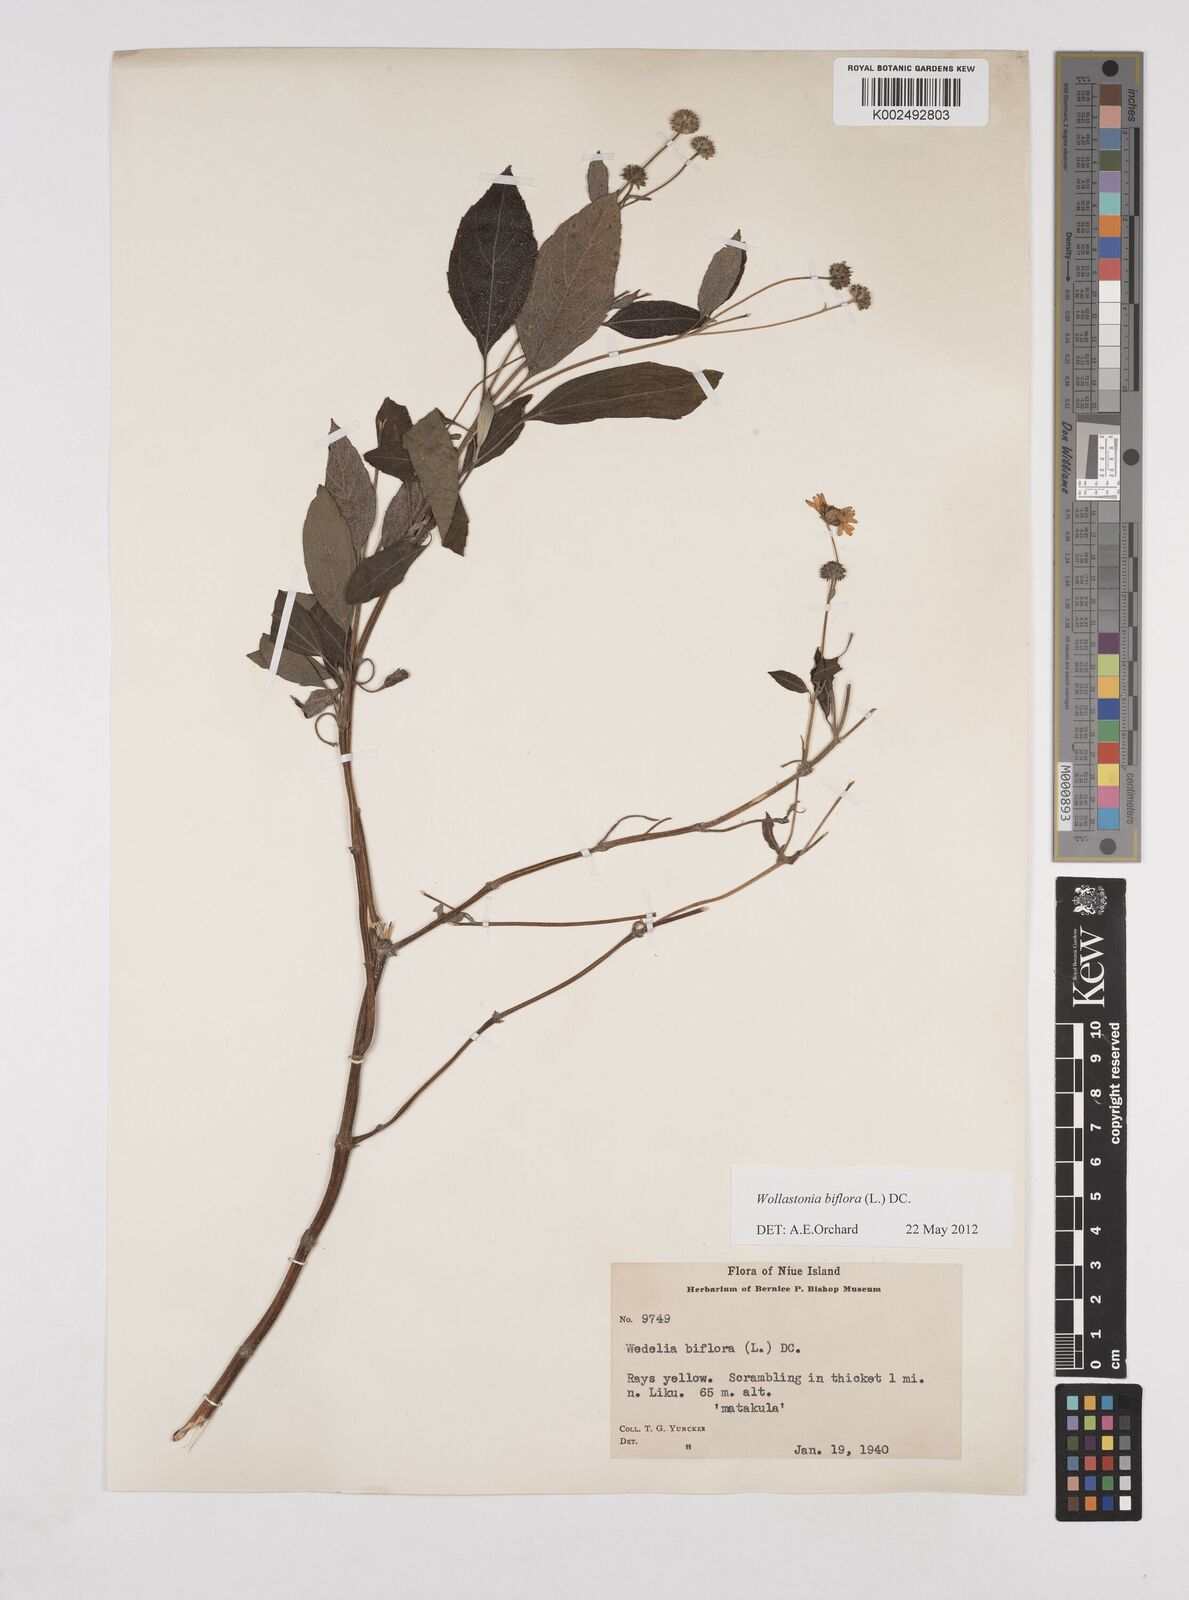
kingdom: Plantae
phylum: Tracheophyta
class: Magnoliopsida
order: Asterales
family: Asteraceae
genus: Wollastonia
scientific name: Wollastonia biflora
